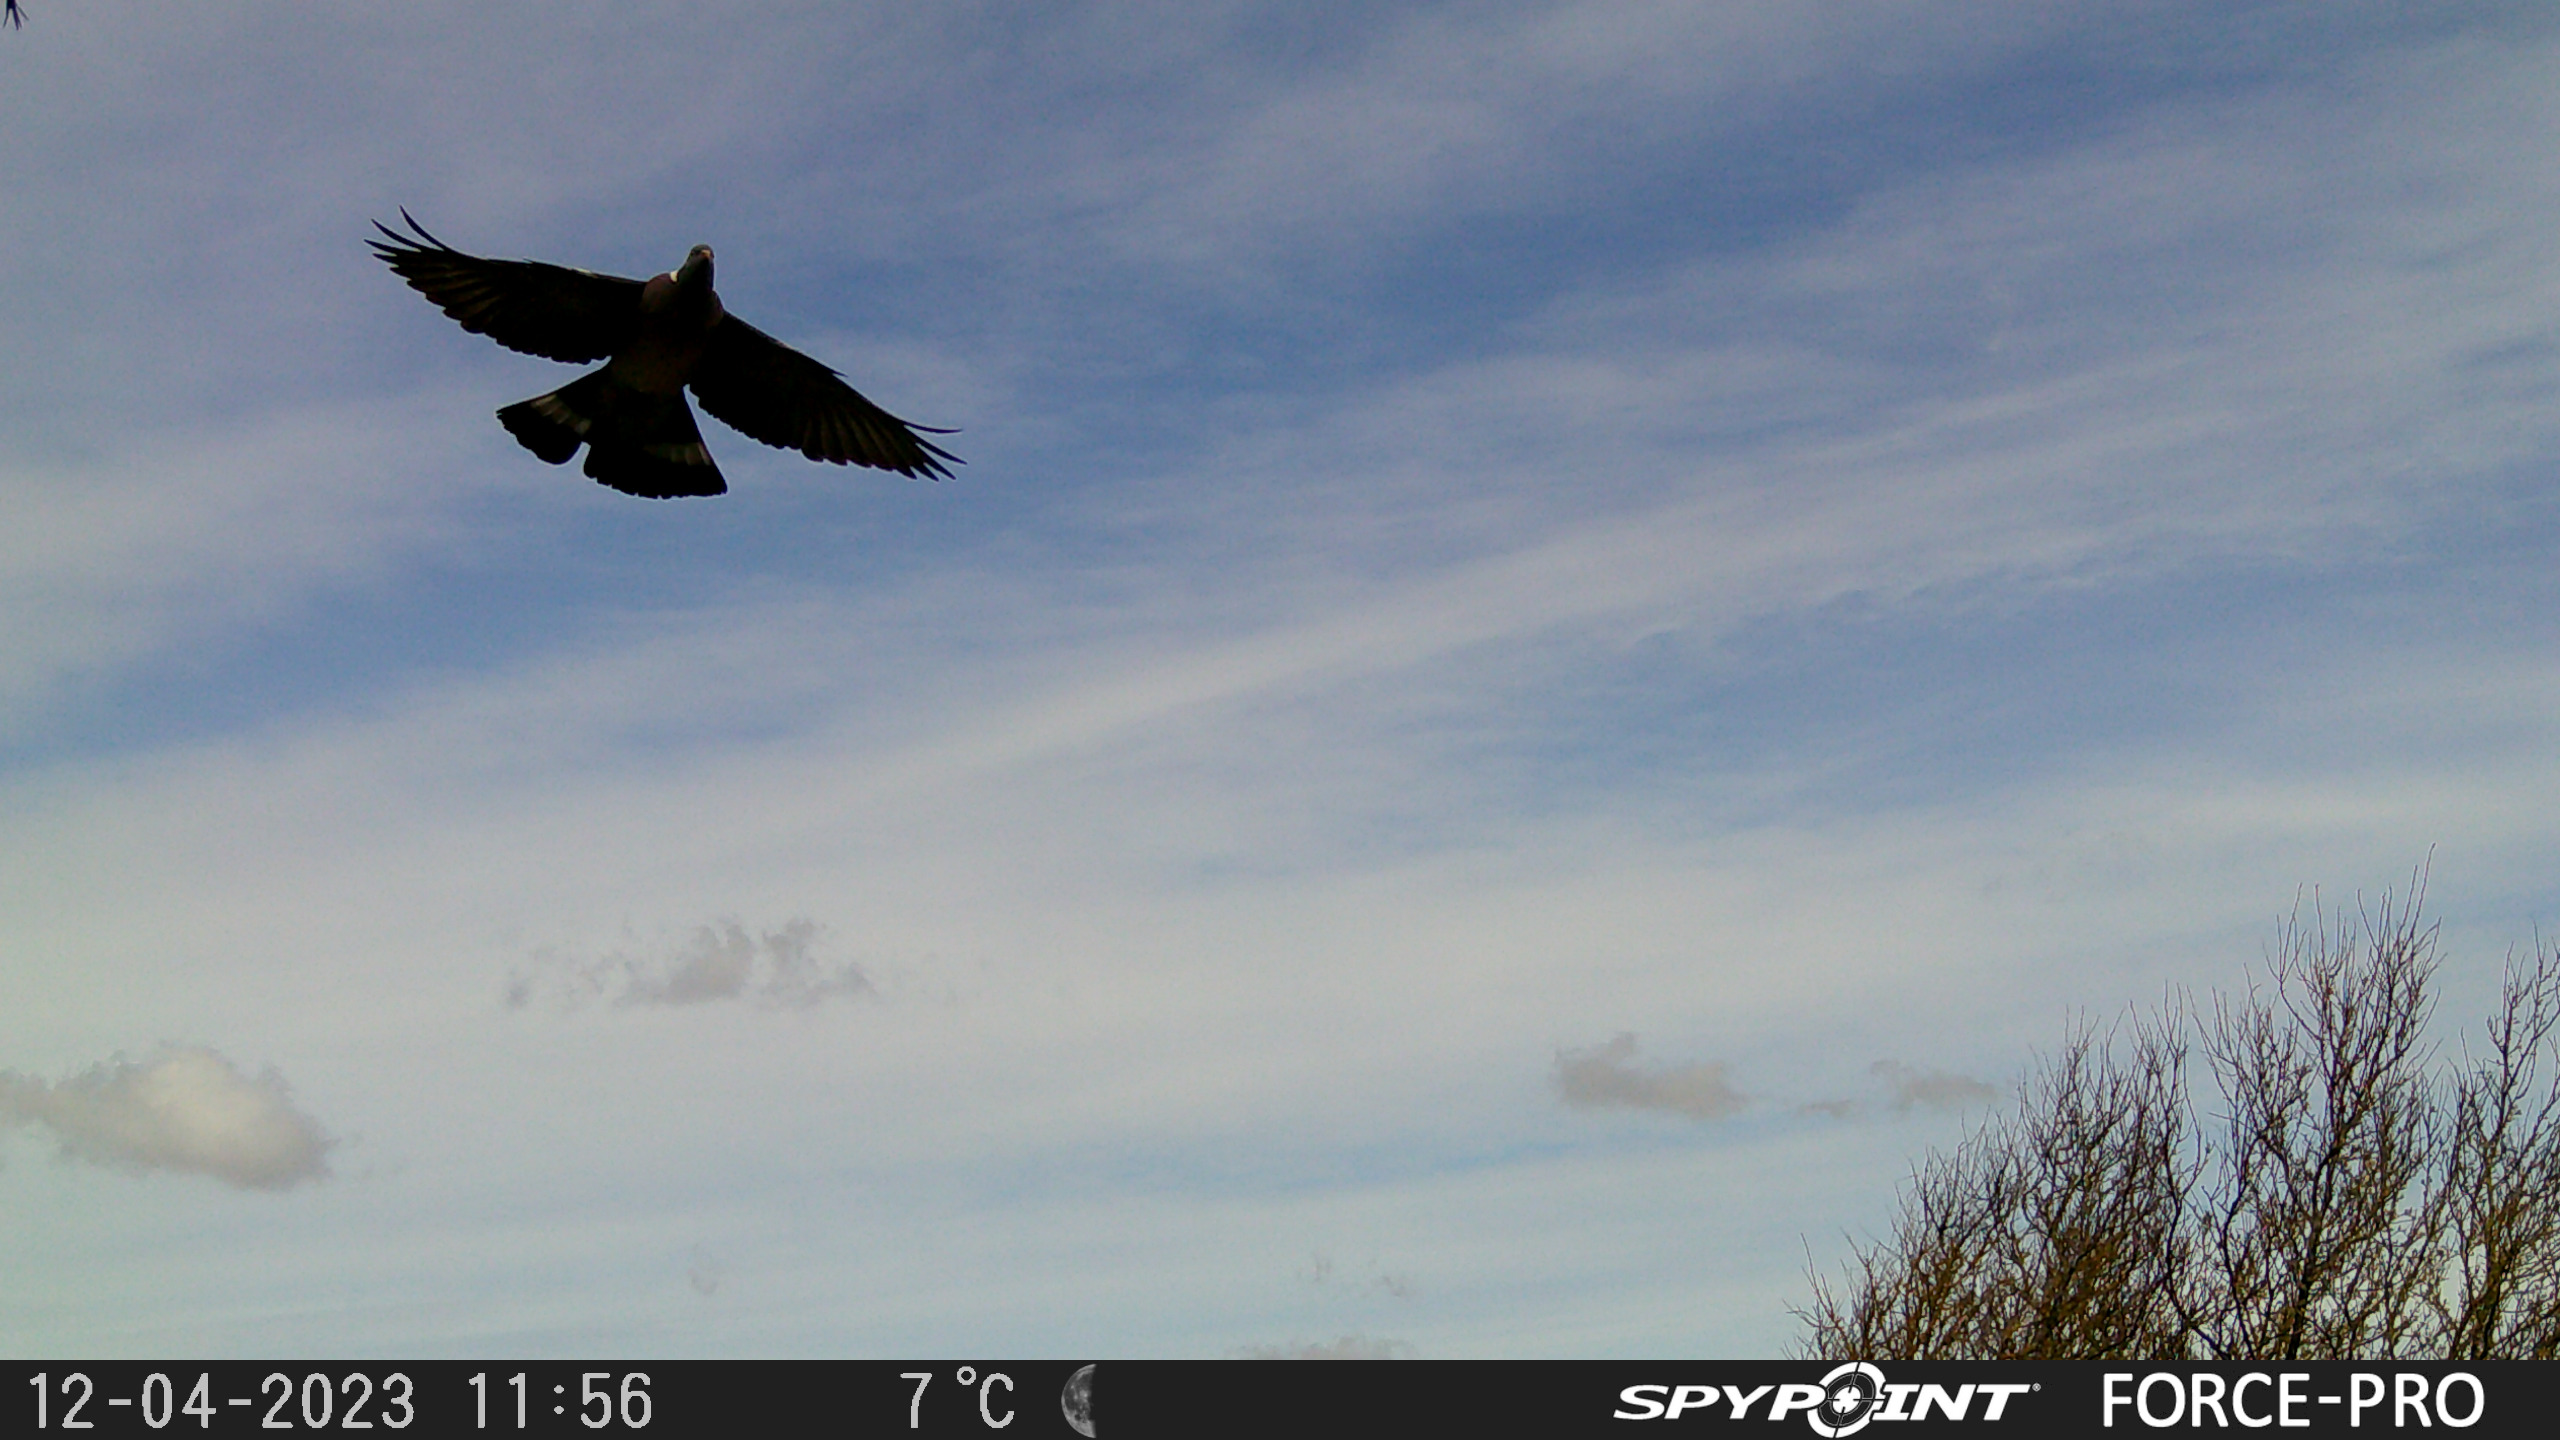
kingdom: Animalia
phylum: Chordata
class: Aves
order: Columbiformes
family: Columbidae
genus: Columba
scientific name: Columba palumbus
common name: Ringdue
